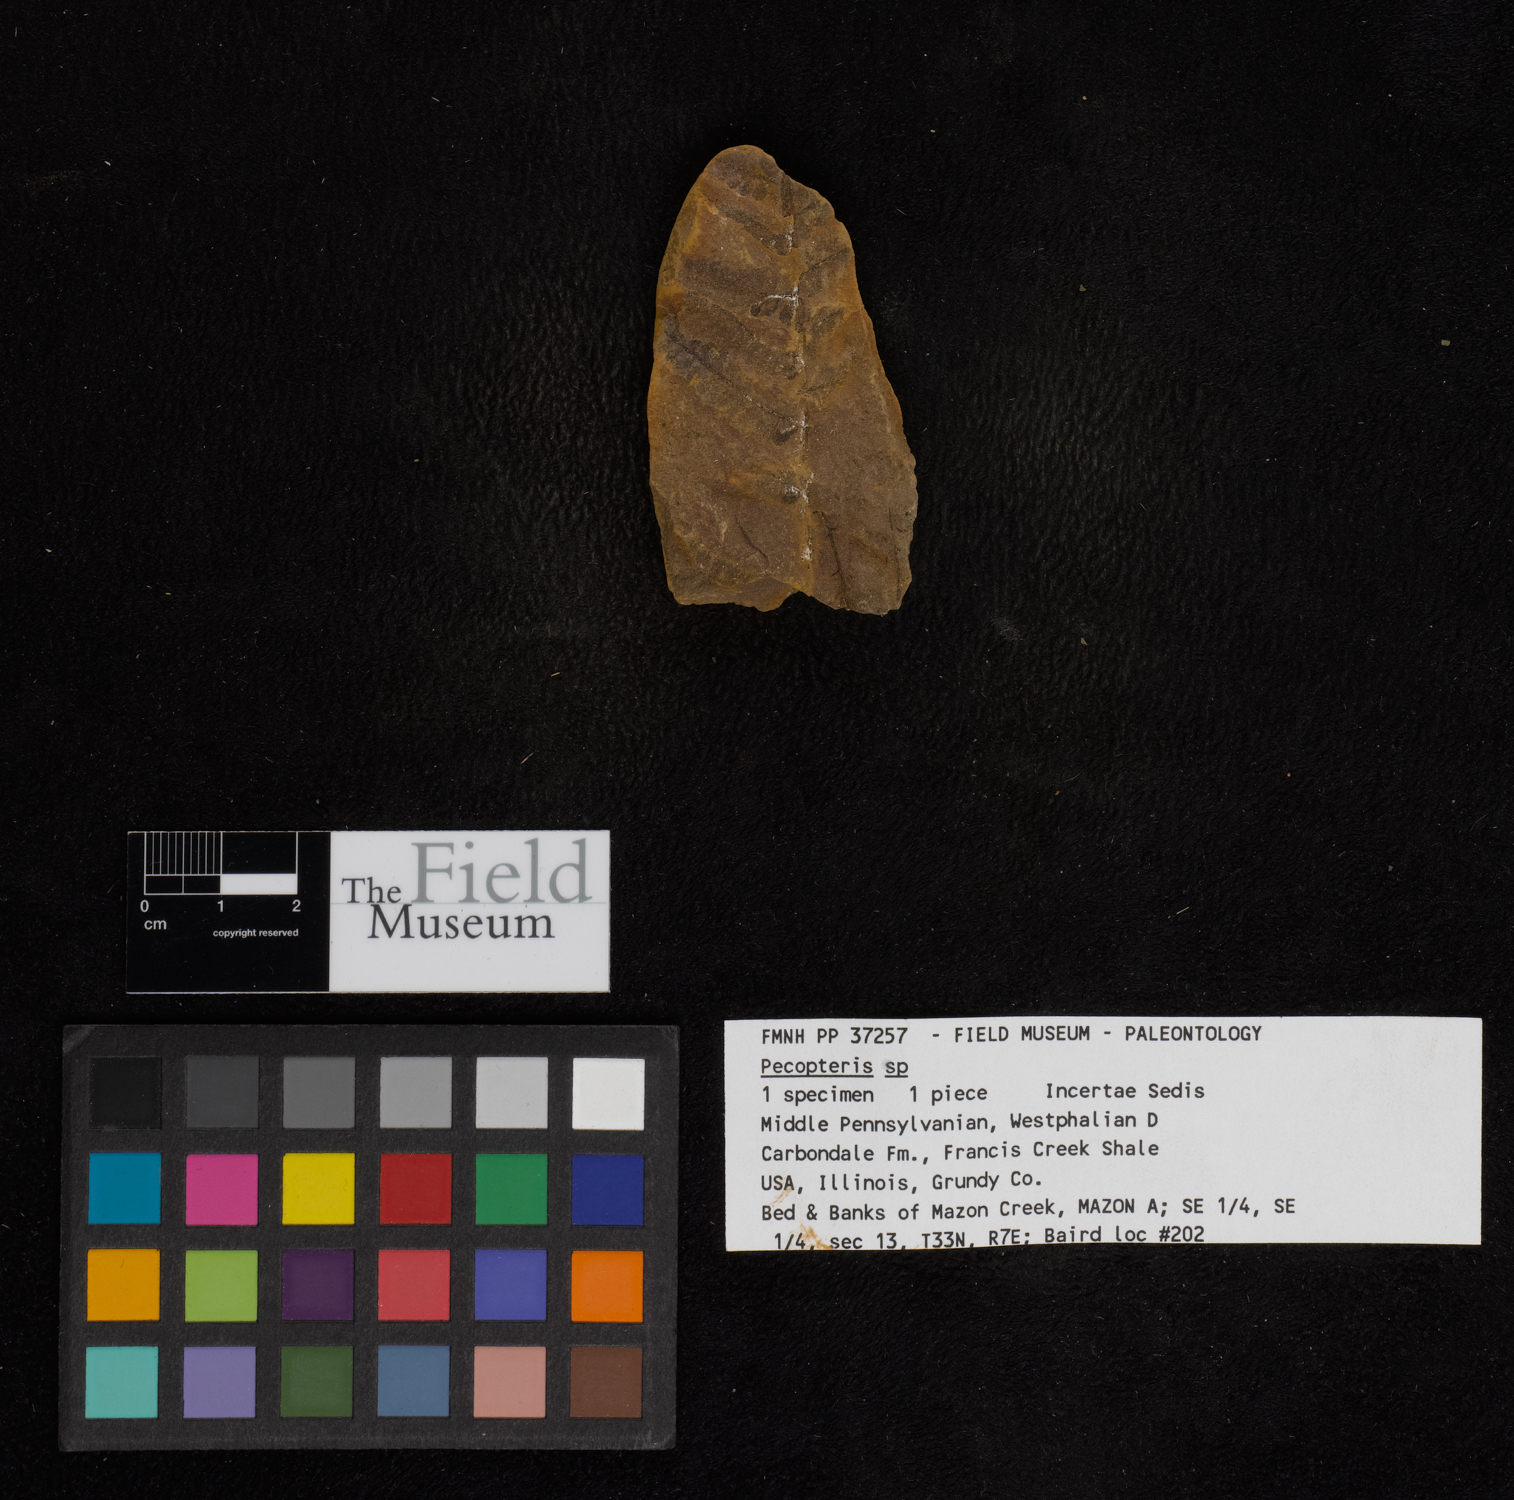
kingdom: Plantae
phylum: Tracheophyta
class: Polypodiopsida
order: Marattiales
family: Asterothecaceae
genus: Pecopteris
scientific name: Pecopteris
